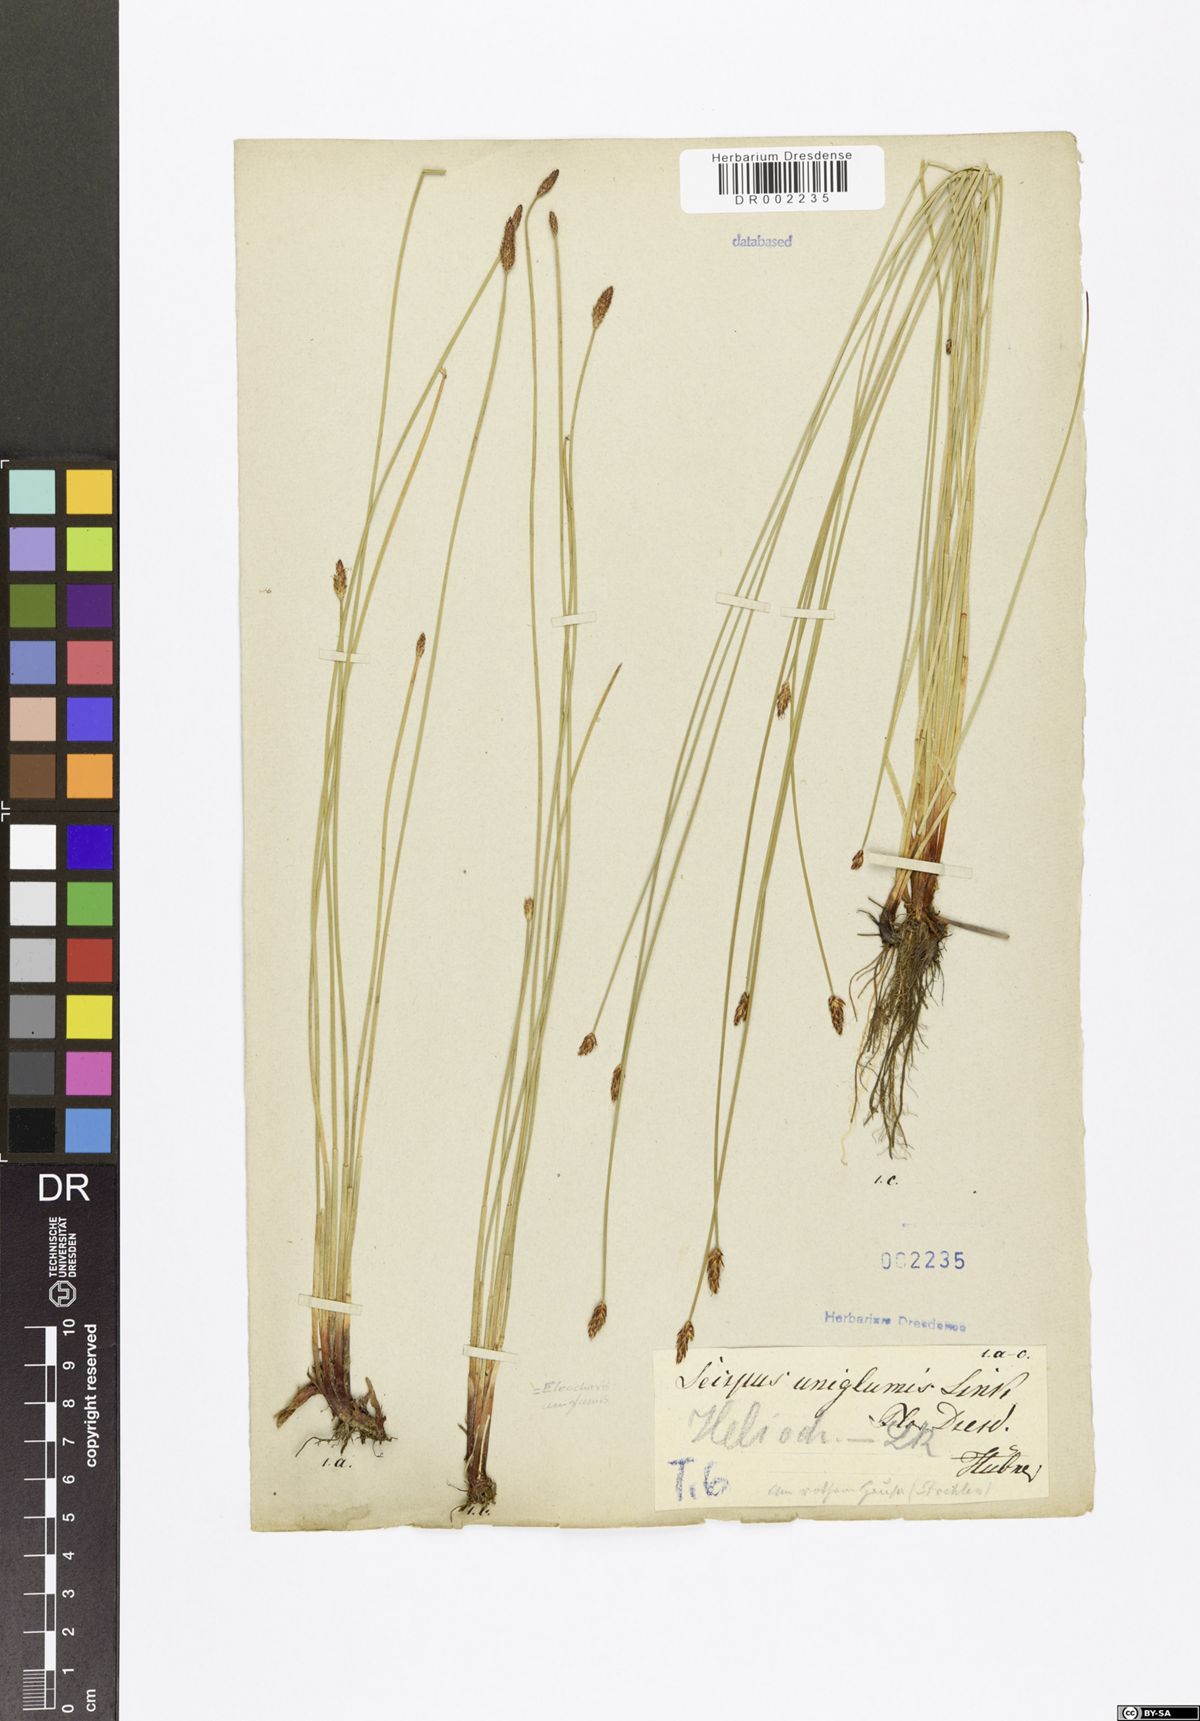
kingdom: Plantae
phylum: Tracheophyta
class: Liliopsida
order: Poales
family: Cyperaceae
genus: Eleocharis
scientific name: Eleocharis uniglumis
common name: Slender spike-rush
